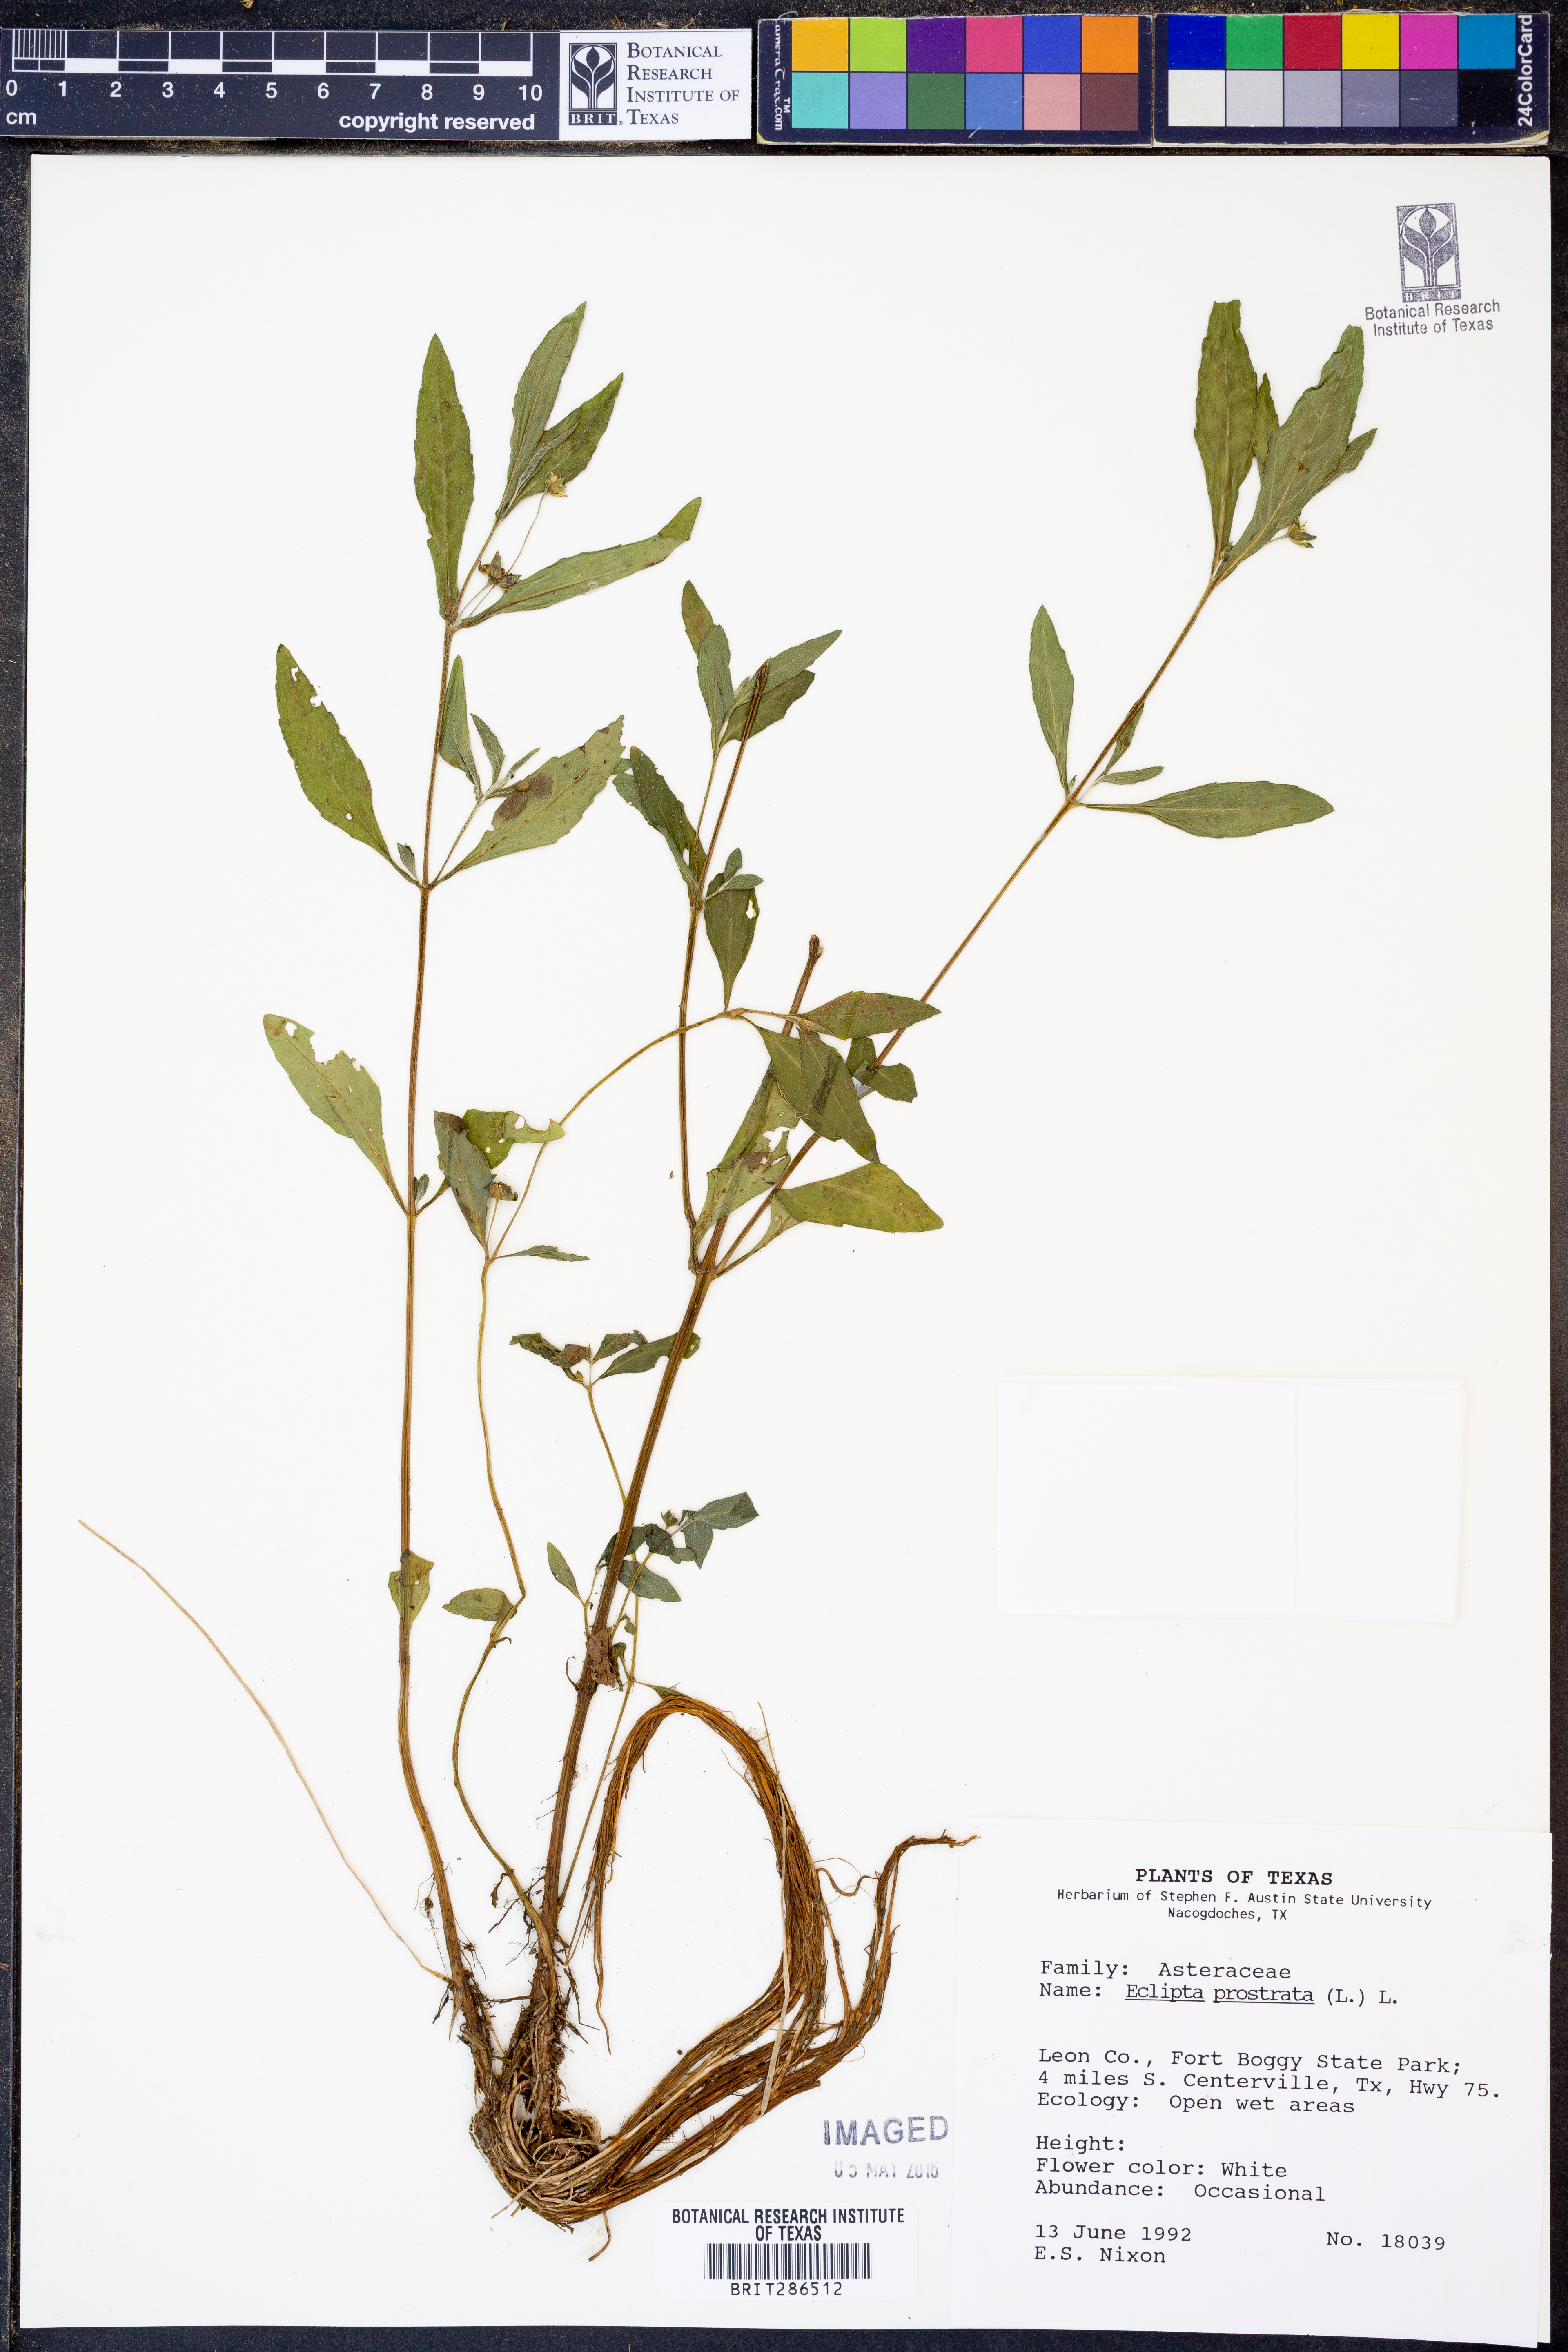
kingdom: Plantae
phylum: Tracheophyta
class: Magnoliopsida
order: Asterales
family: Asteraceae
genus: Eclipta
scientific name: Eclipta prostrata
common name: False daisy
